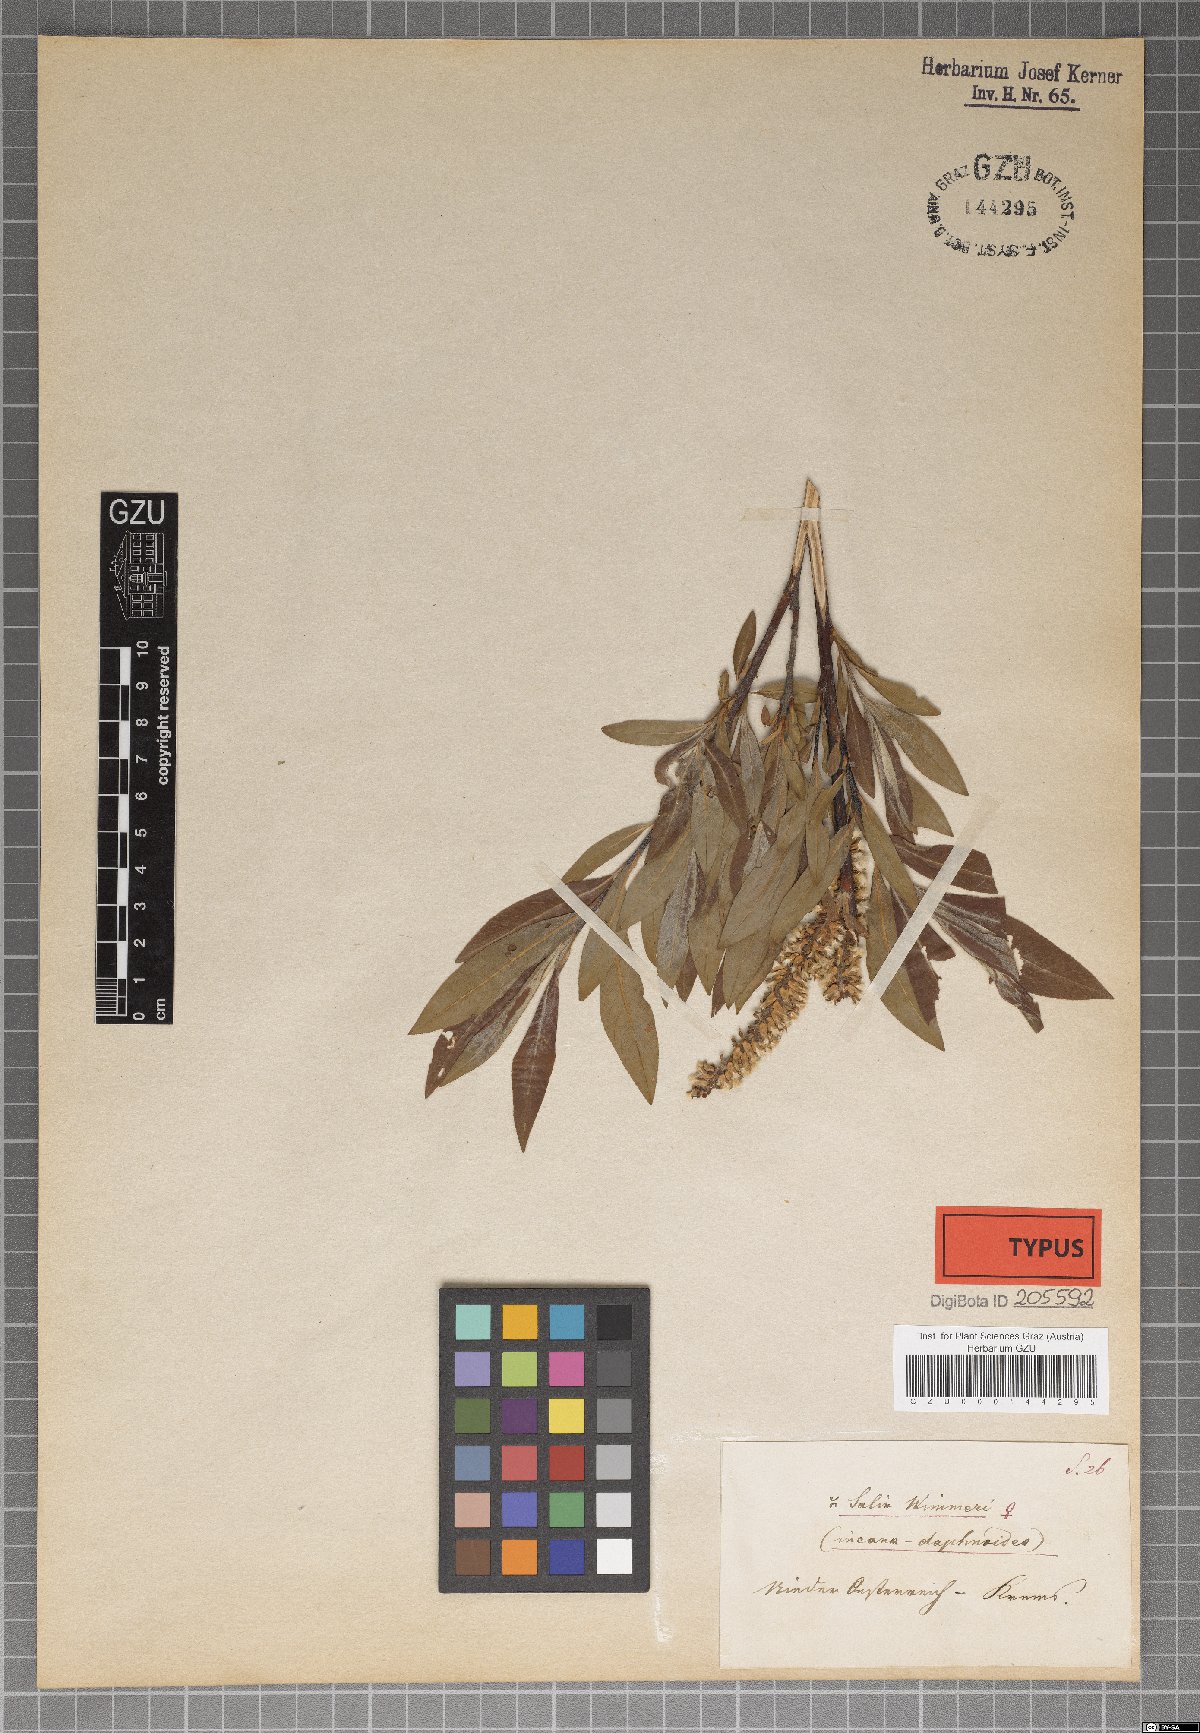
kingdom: Plantae
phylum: Tracheophyta
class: Magnoliopsida
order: Malpighiales
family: Salicaceae
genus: Salix
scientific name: Salix reuteri
